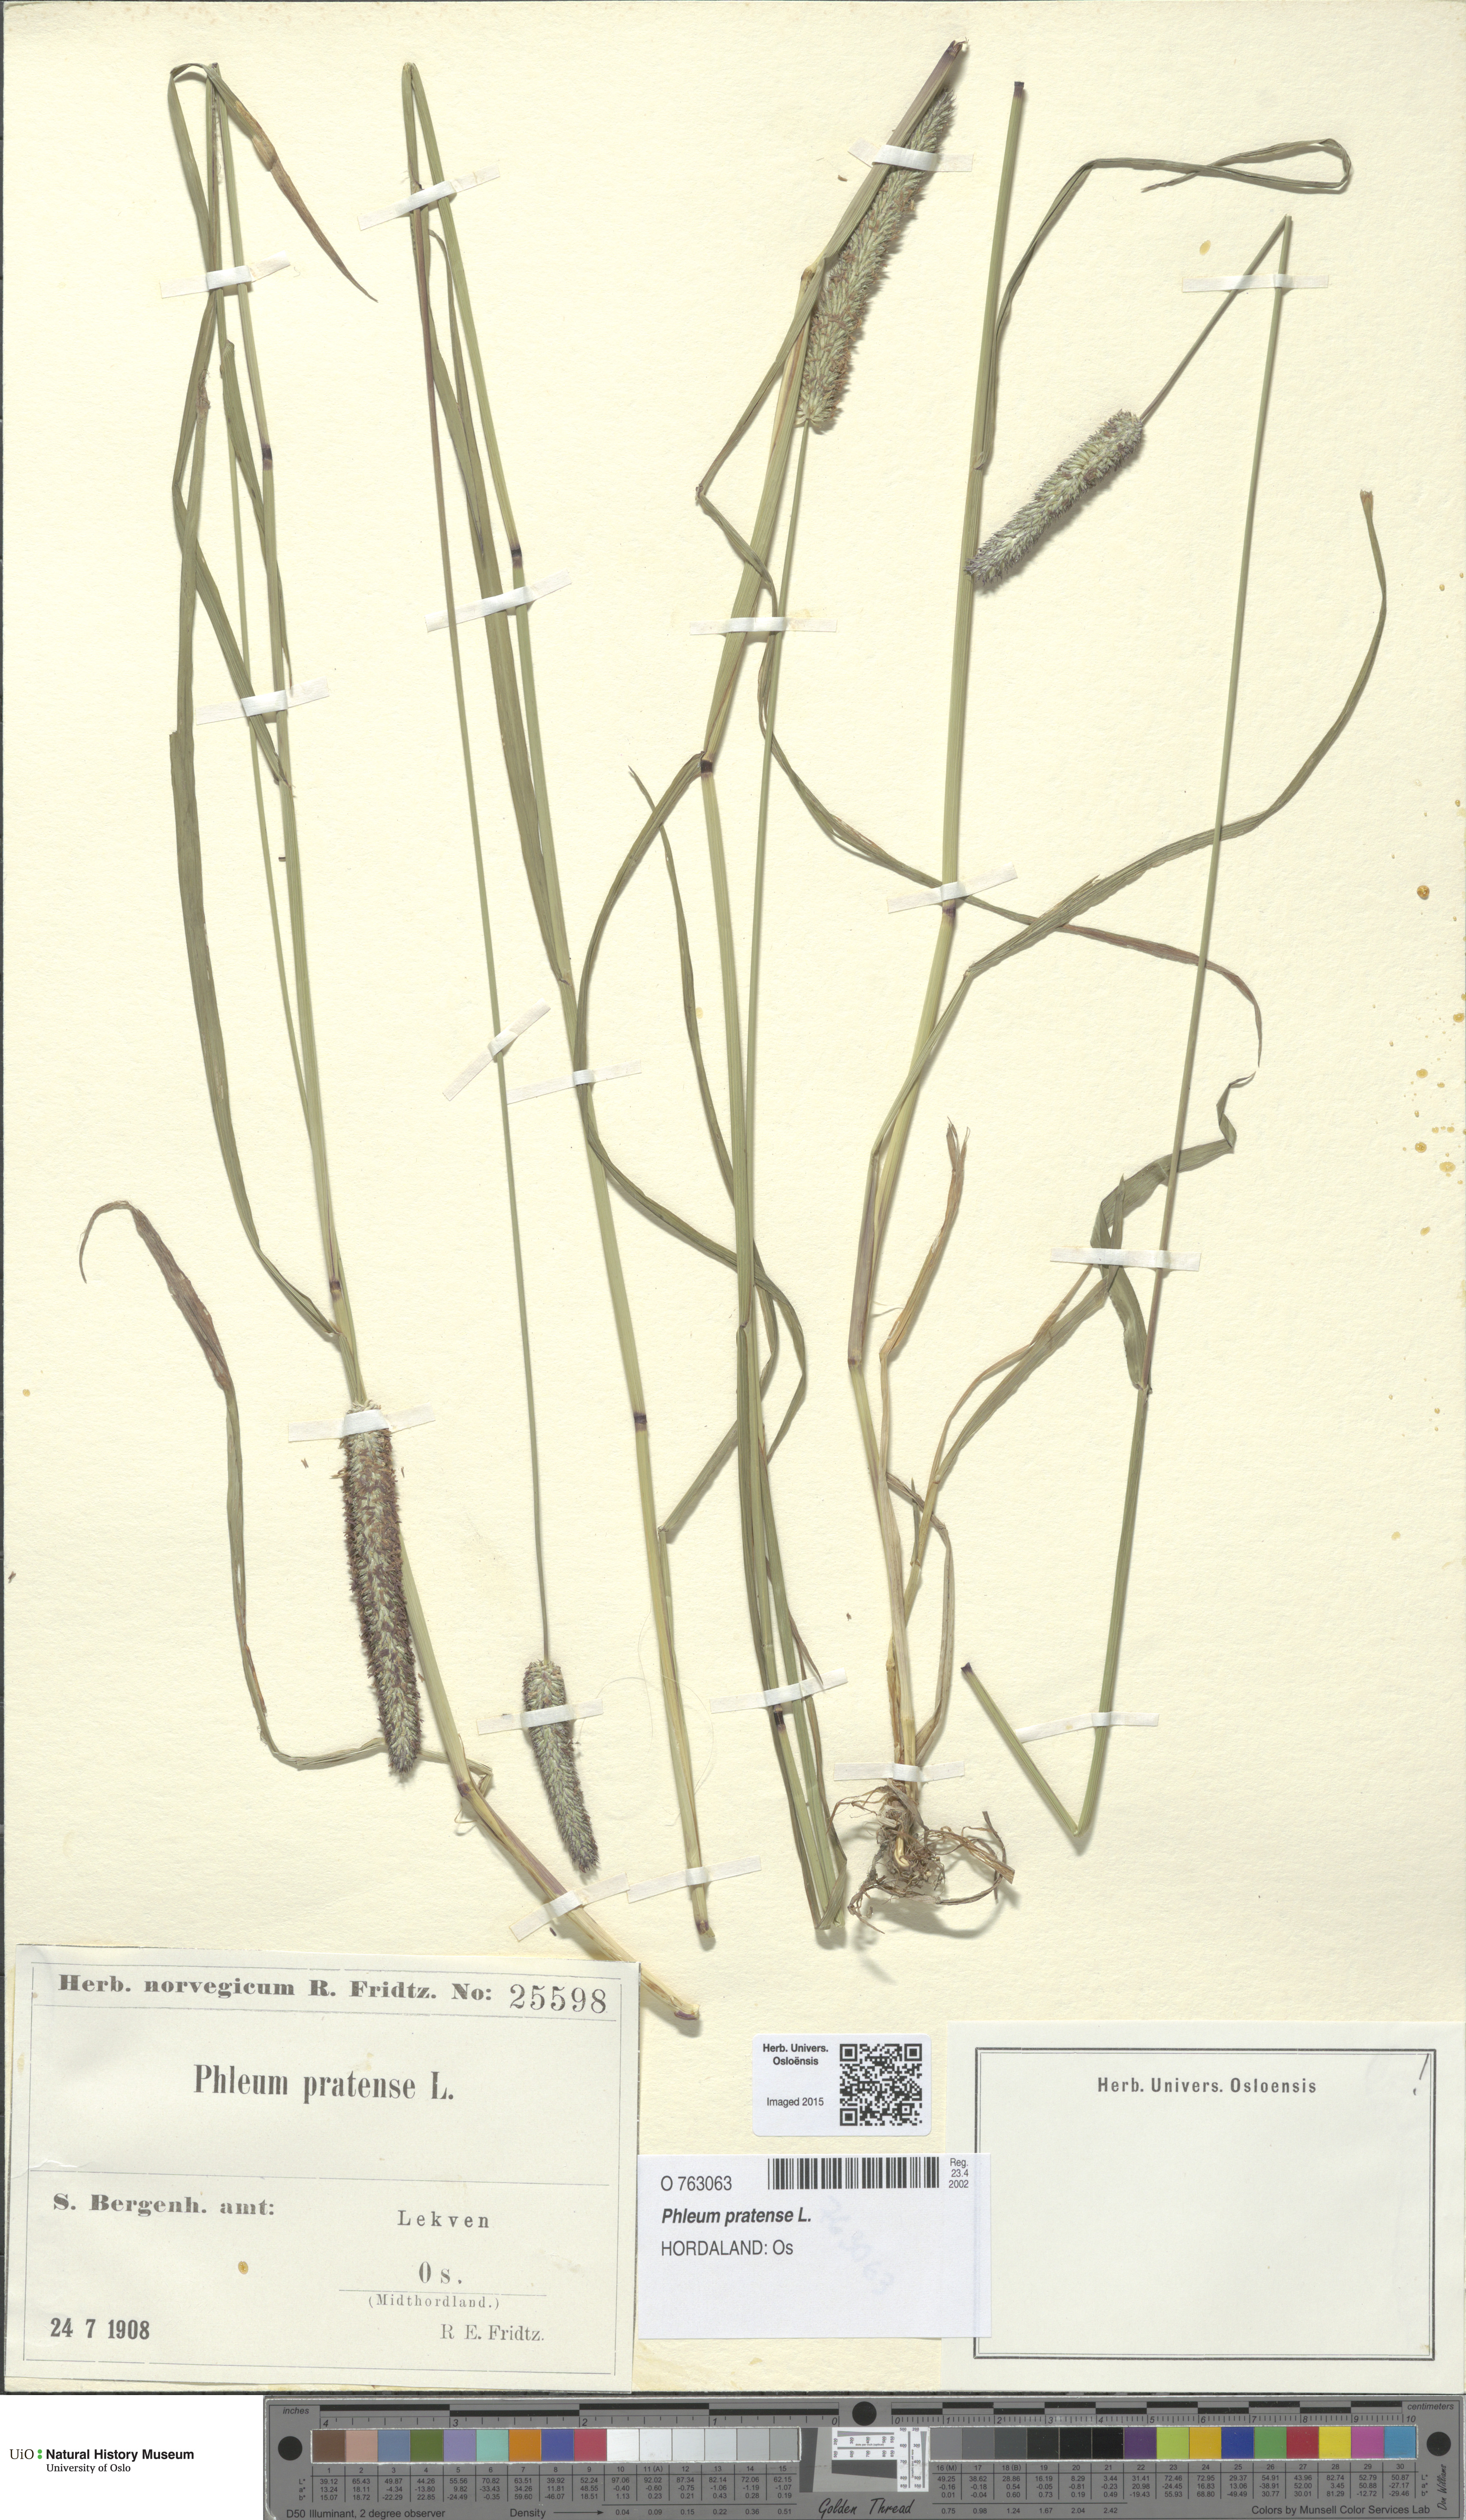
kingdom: Plantae
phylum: Tracheophyta
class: Liliopsida
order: Poales
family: Poaceae
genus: Phleum
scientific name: Phleum pratense
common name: Timothy grass
